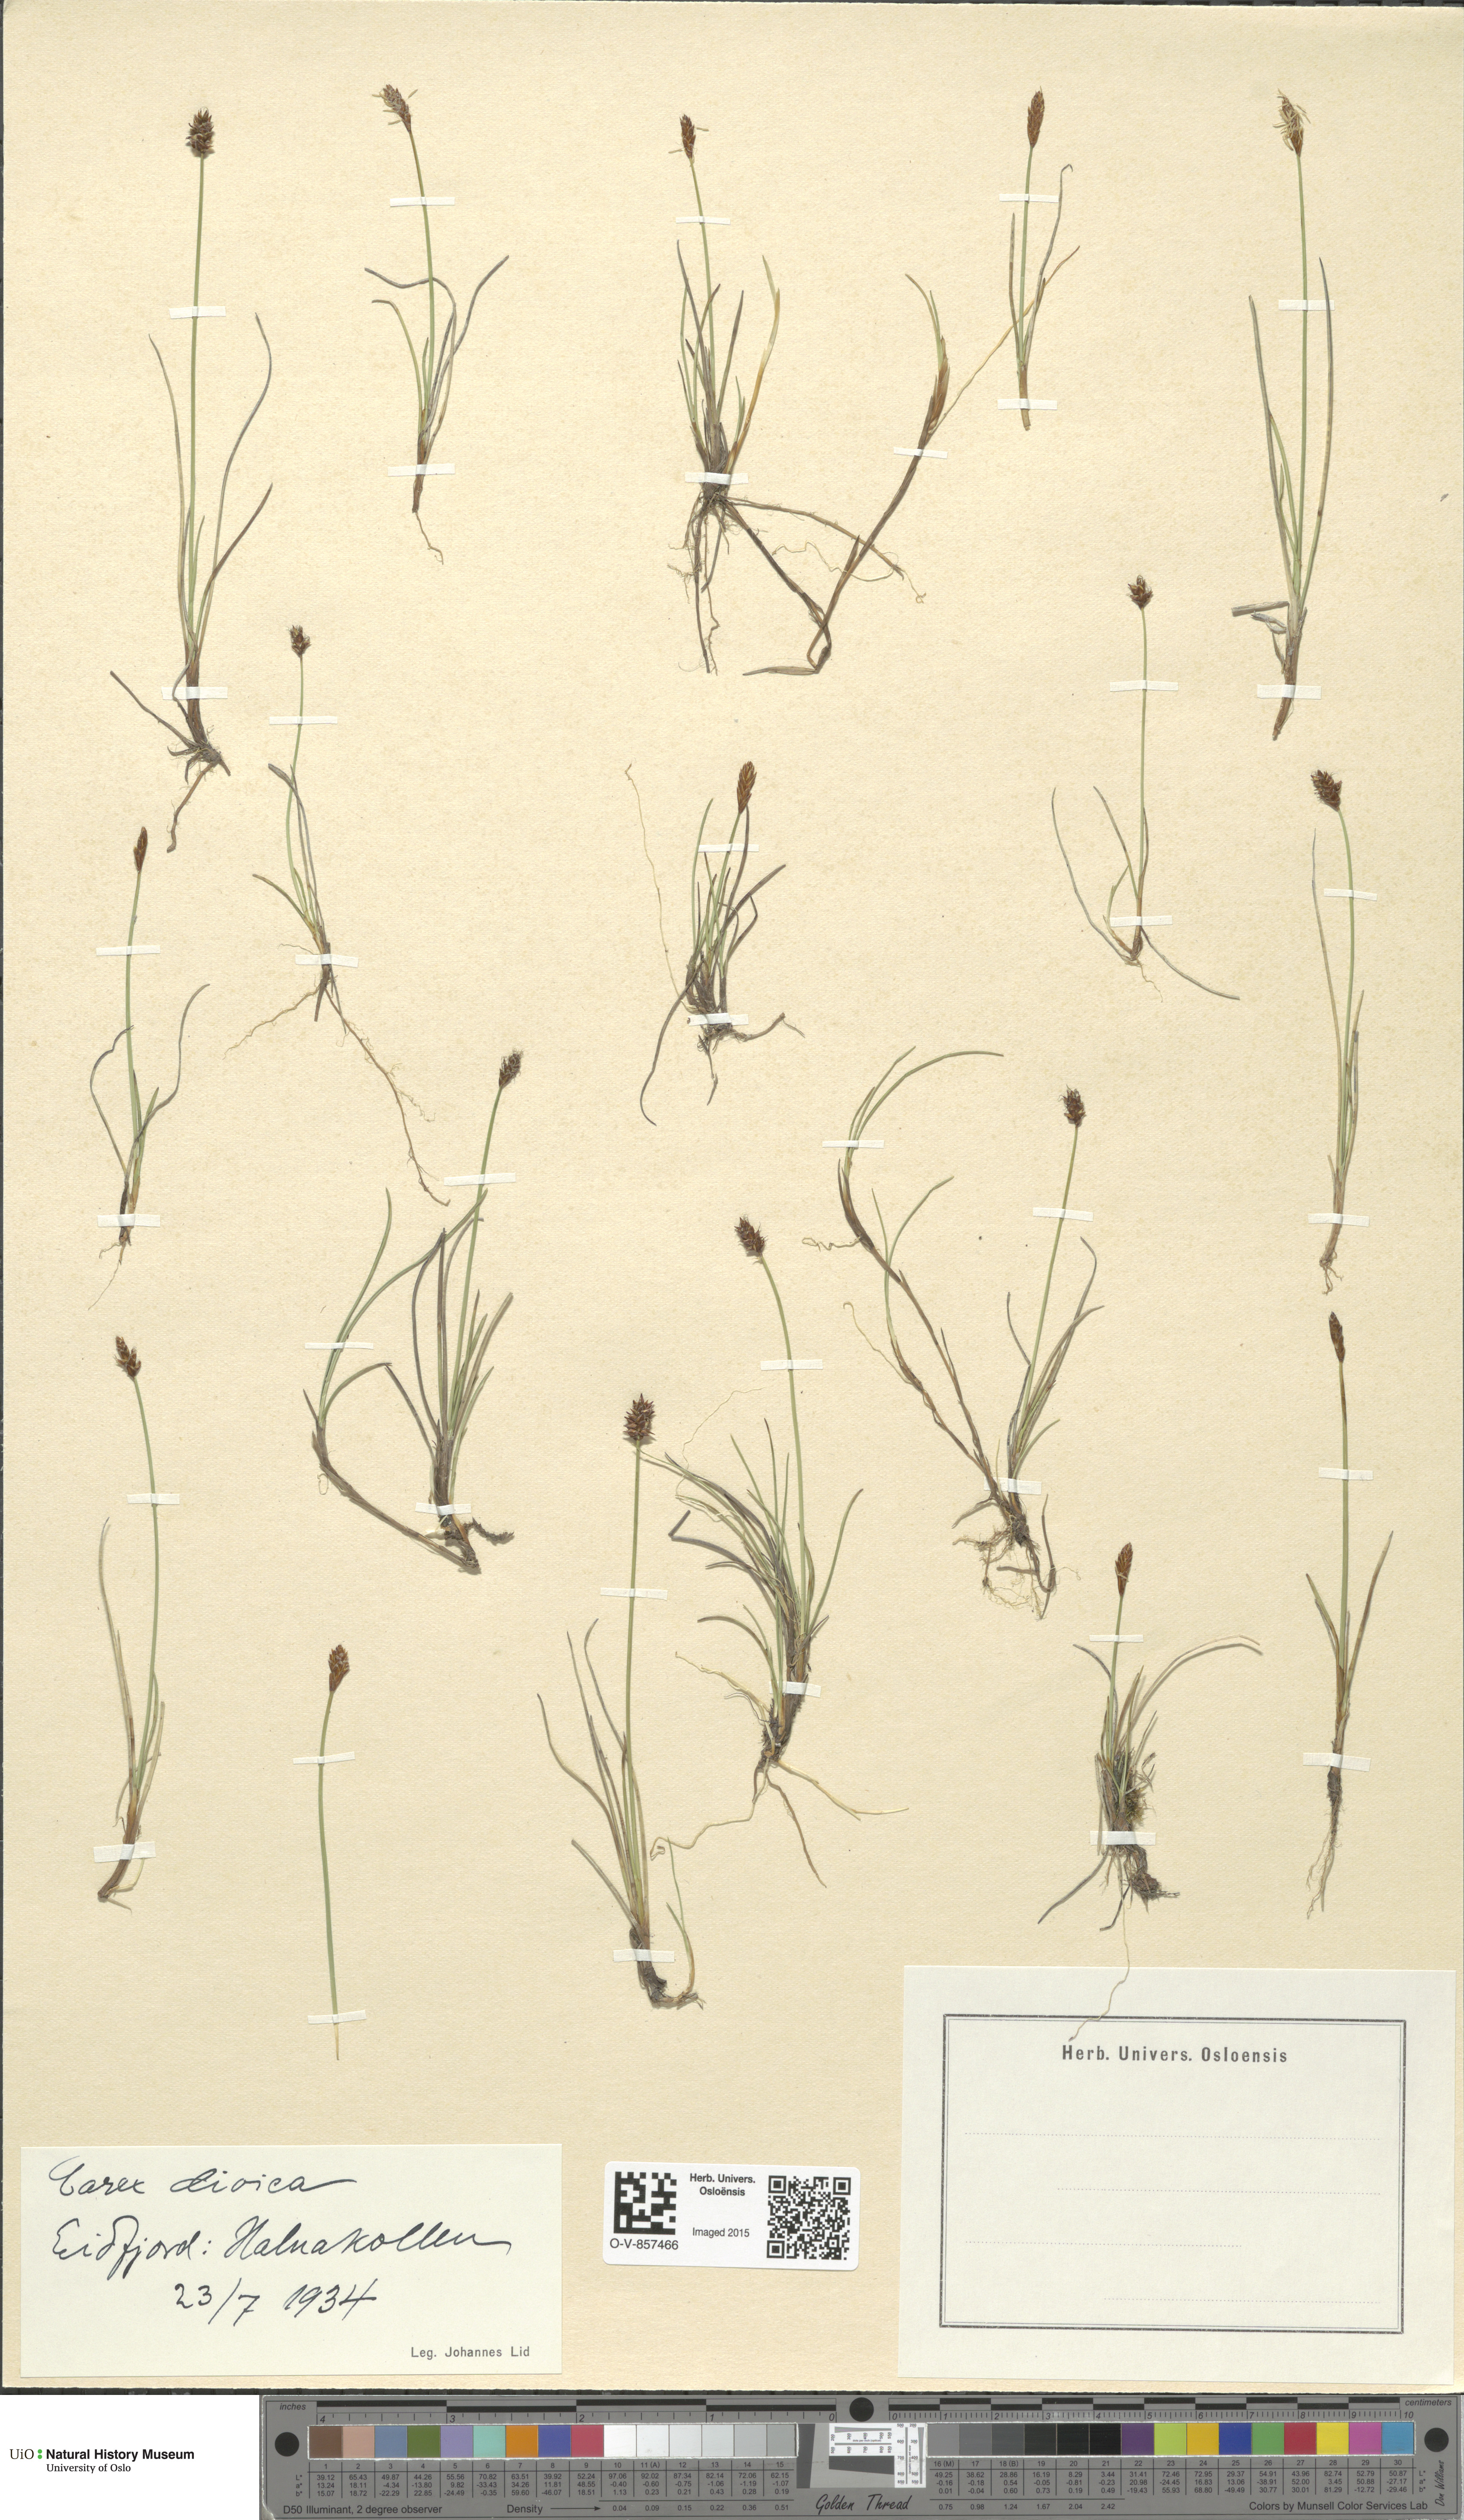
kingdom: Plantae
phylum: Tracheophyta
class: Liliopsida
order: Poales
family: Cyperaceae
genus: Carex
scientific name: Carex dioica
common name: Dioecious sedge
